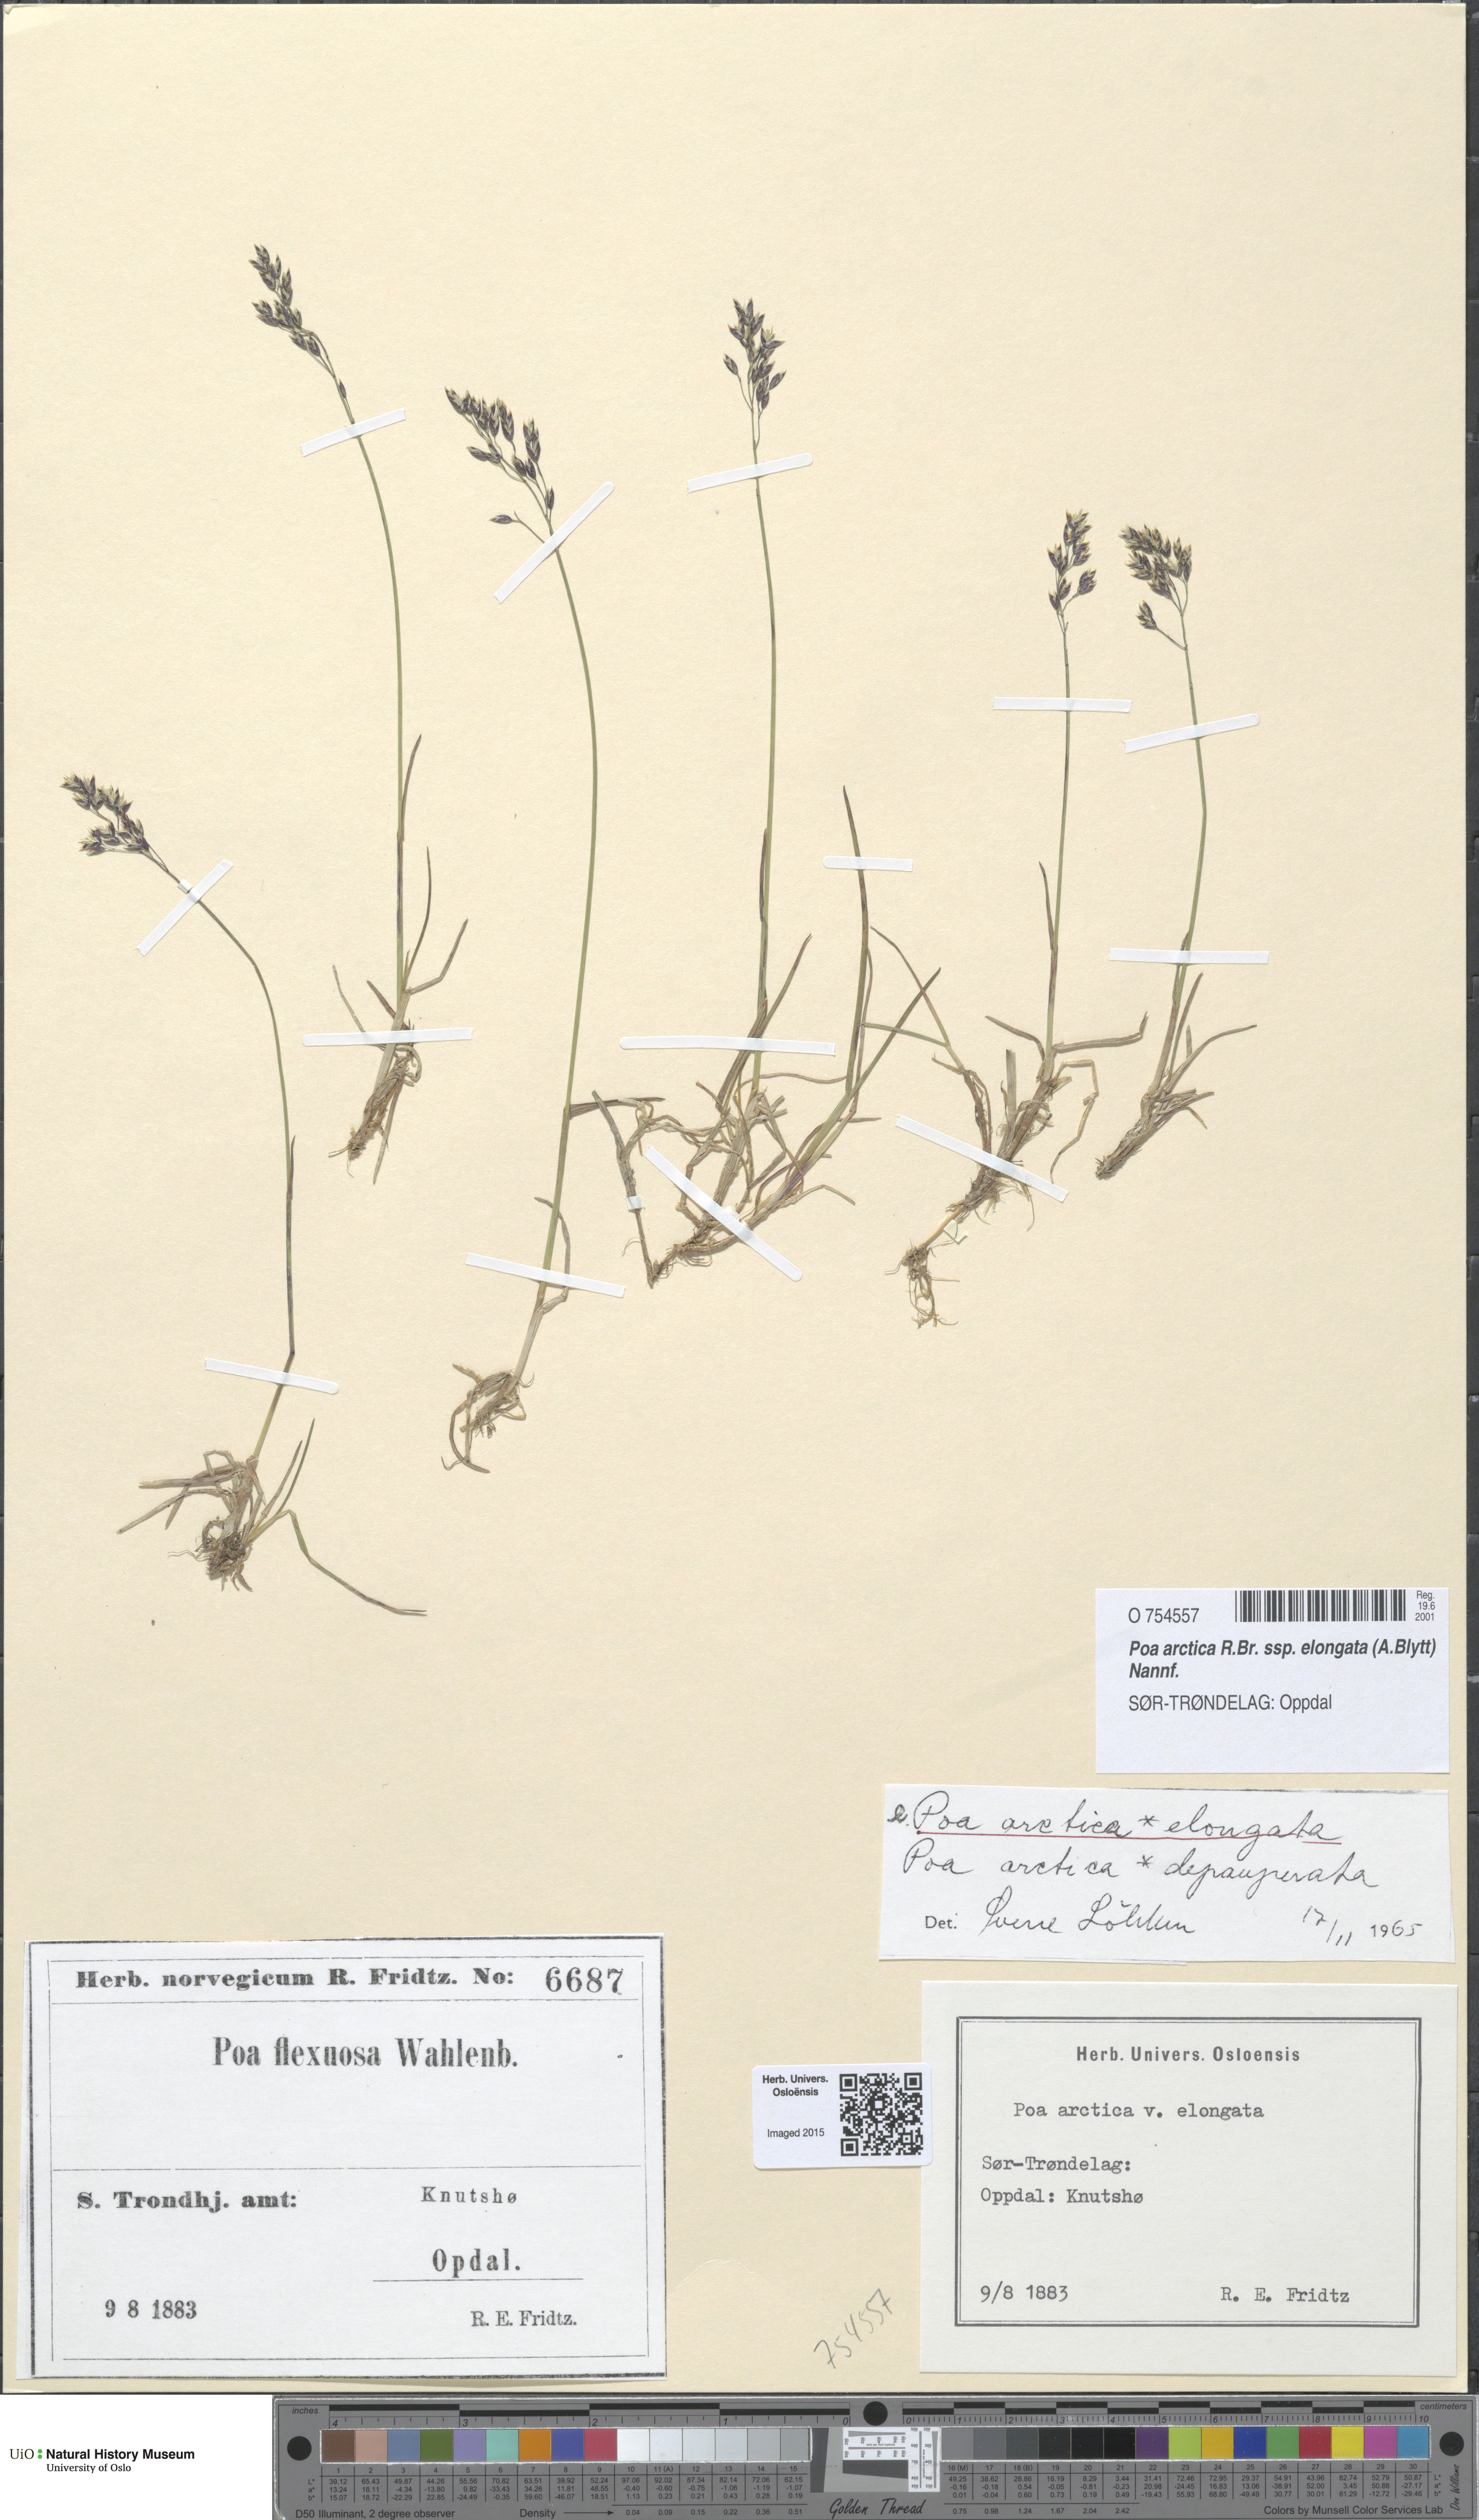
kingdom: Plantae
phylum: Tracheophyta
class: Liliopsida
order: Poales
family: Poaceae
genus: Poa
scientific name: Poa arctica
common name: Arctic bluegrass
